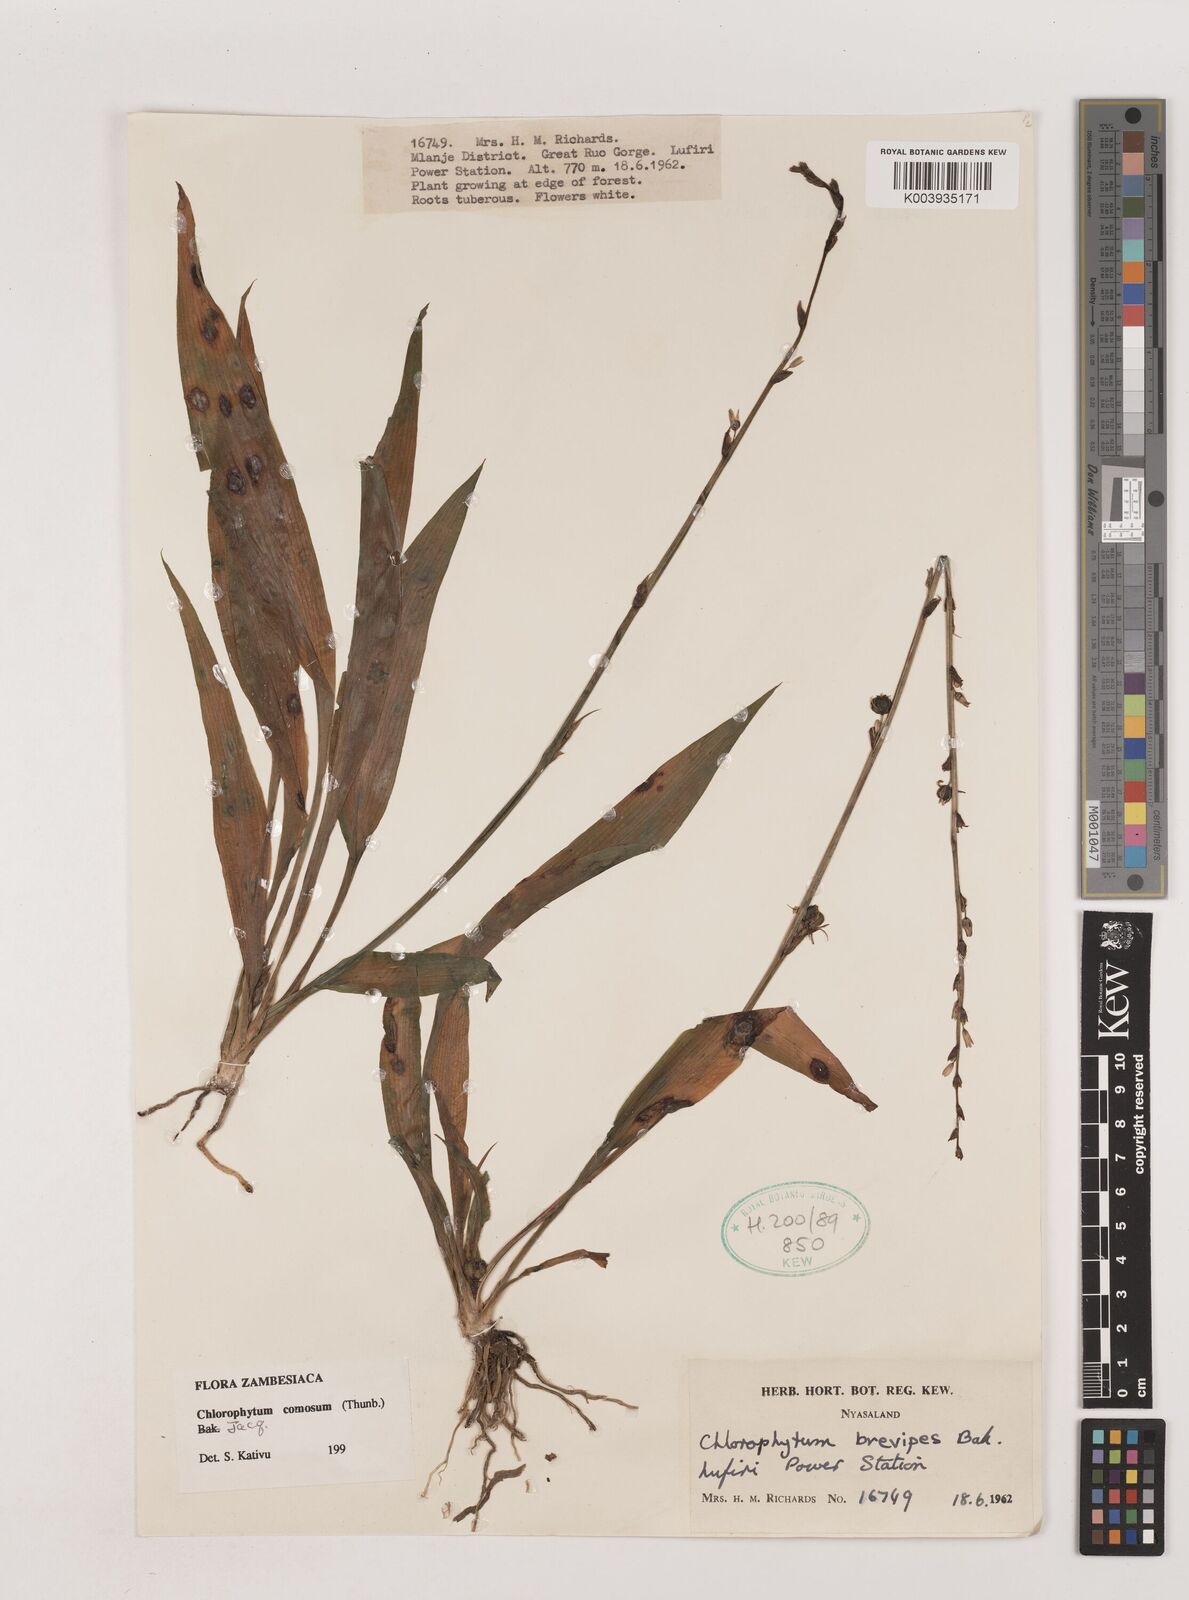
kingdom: Plantae
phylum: Tracheophyta
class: Liliopsida
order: Asparagales
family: Asparagaceae
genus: Chlorophytum
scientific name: Chlorophytum comosum
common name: Spider plant
